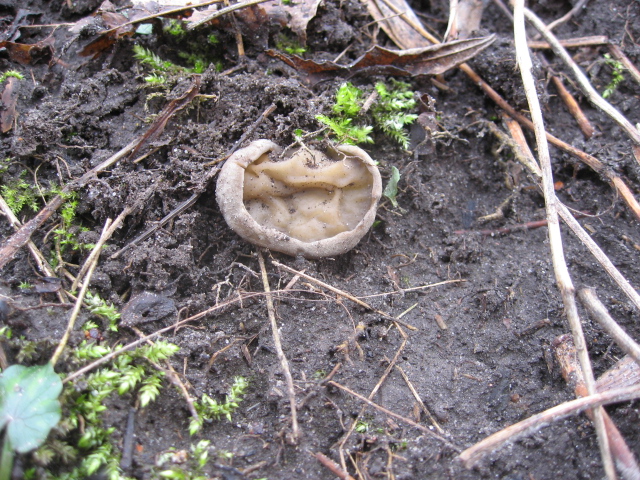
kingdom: Fungi
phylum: Ascomycota
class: Pezizomycetes
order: Pezizales
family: Morchellaceae
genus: Disciotis
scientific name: Disciotis venosa
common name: klor-bægermorkel
